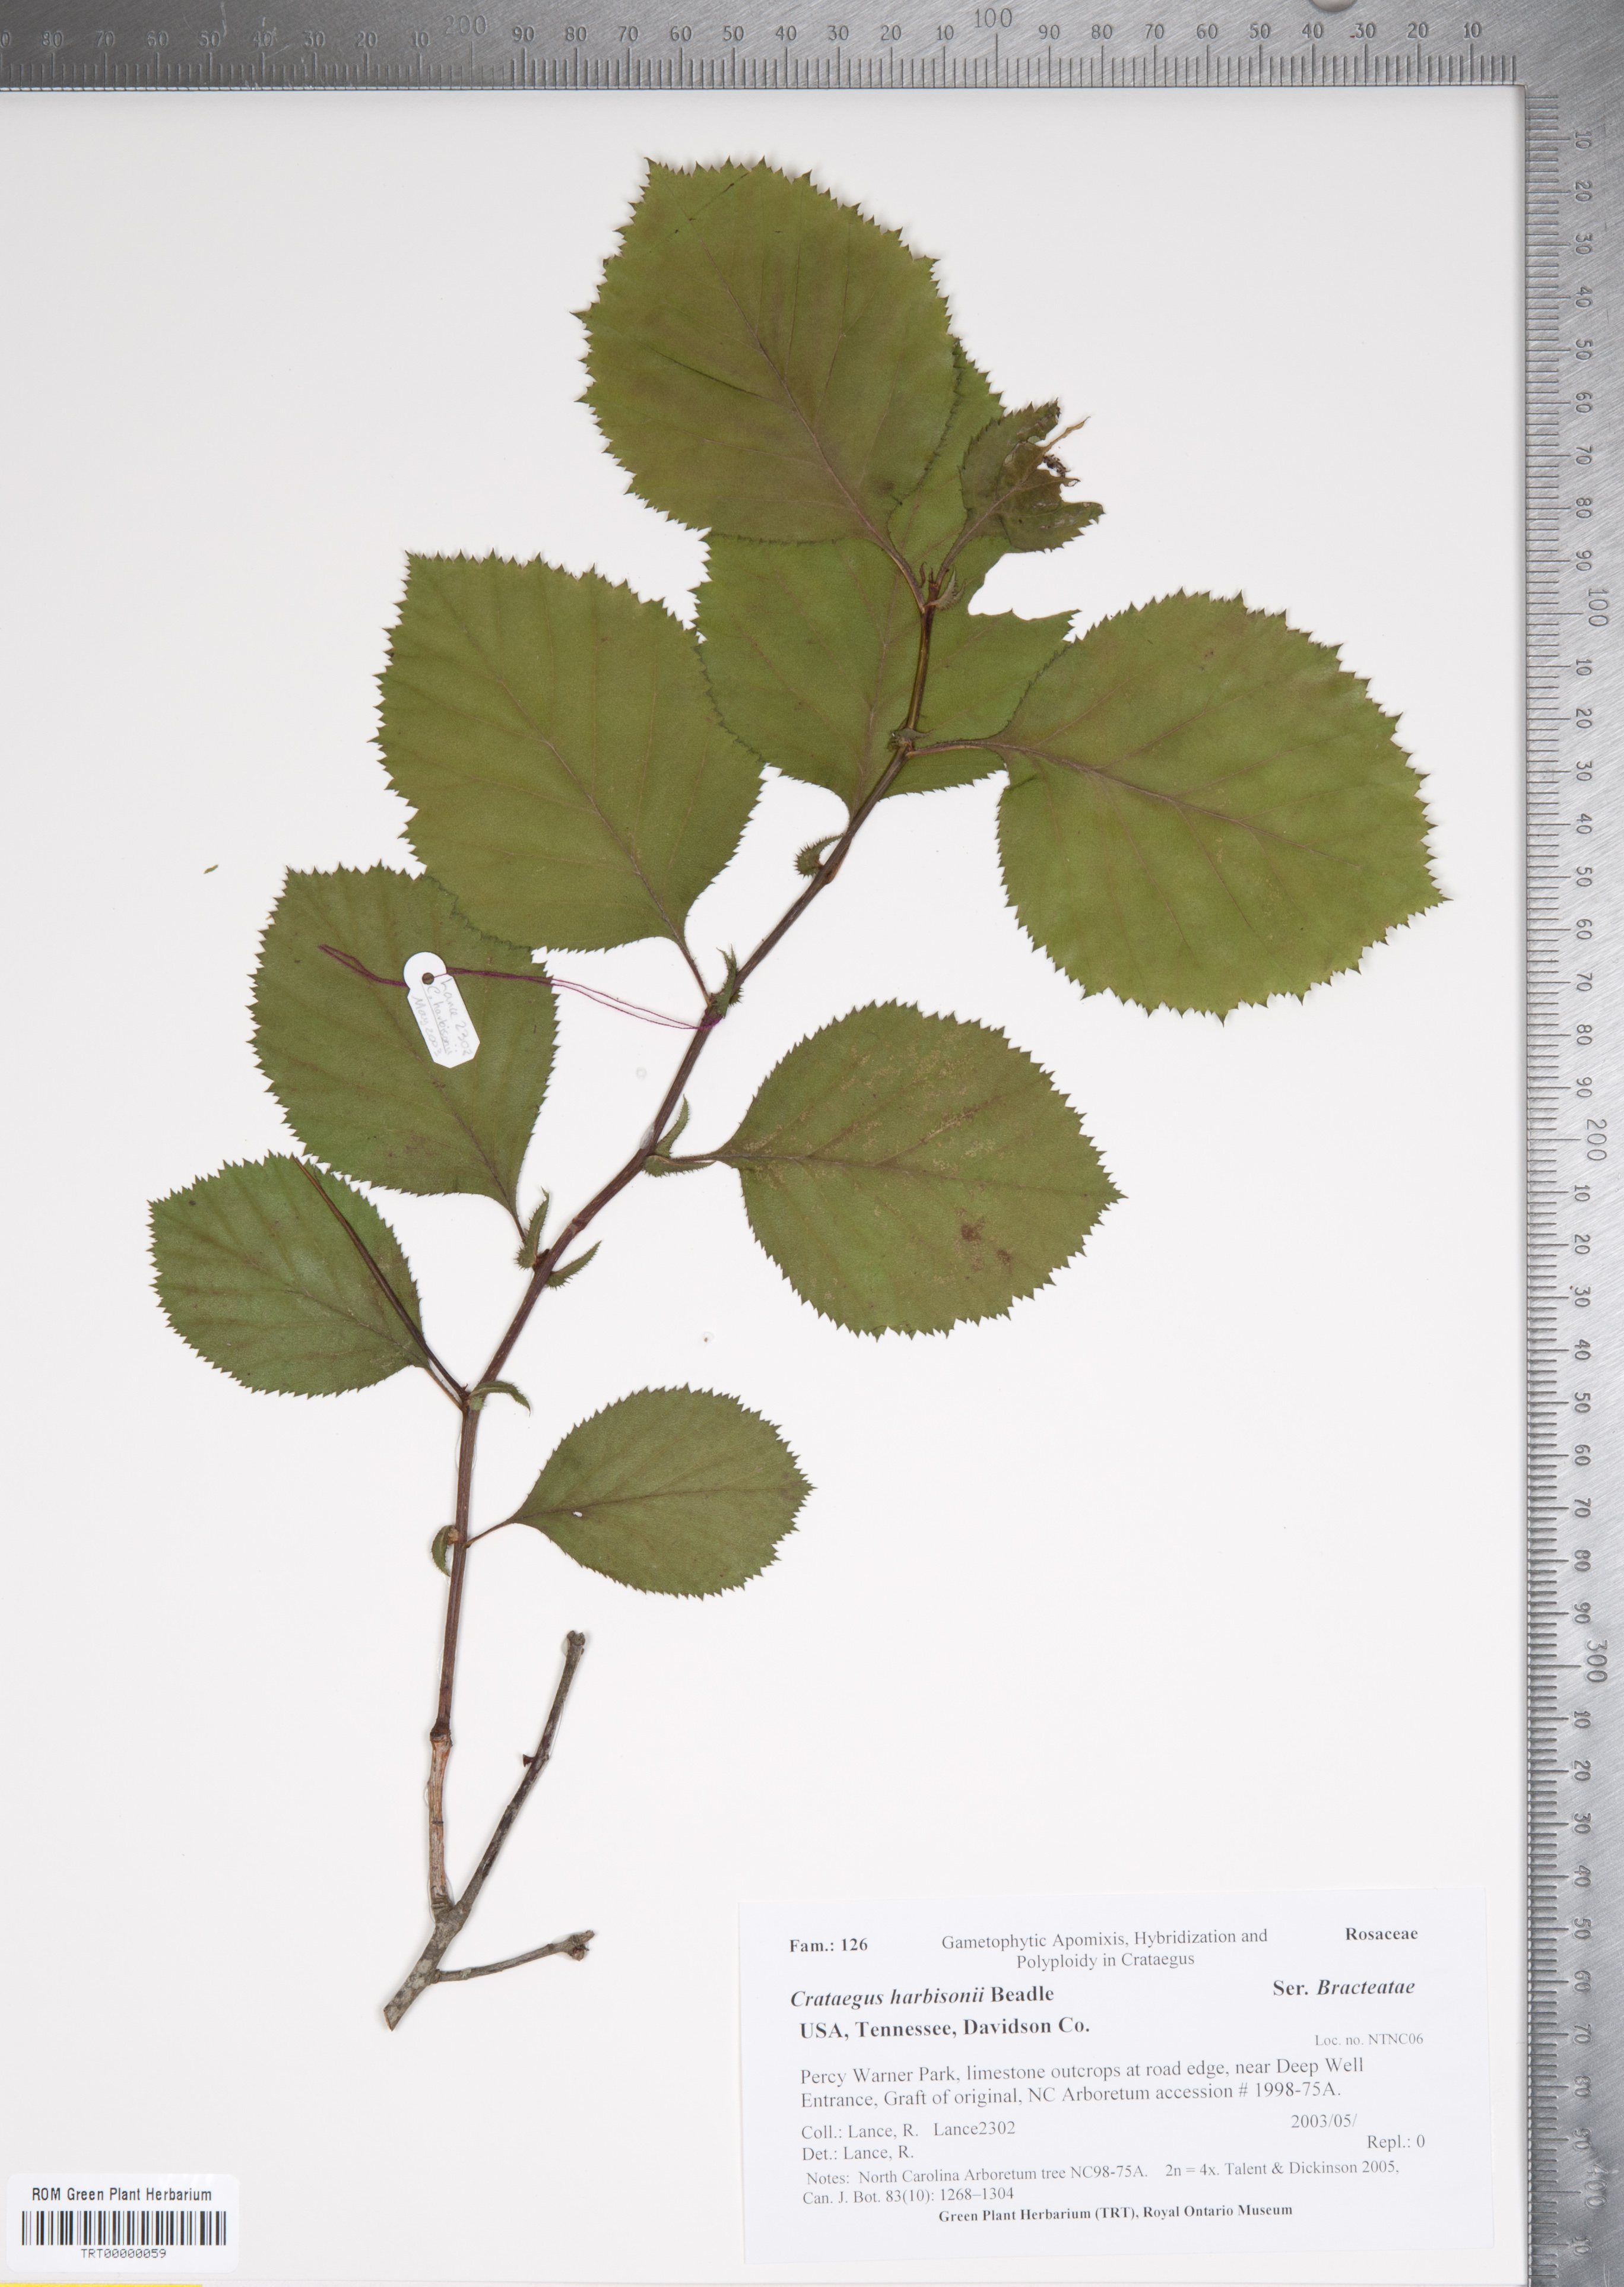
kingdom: Plantae
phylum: Tracheophyta
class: Magnoliopsida
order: Rosales
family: Rosaceae
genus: Crataegus
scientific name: Crataegus harbisonii
